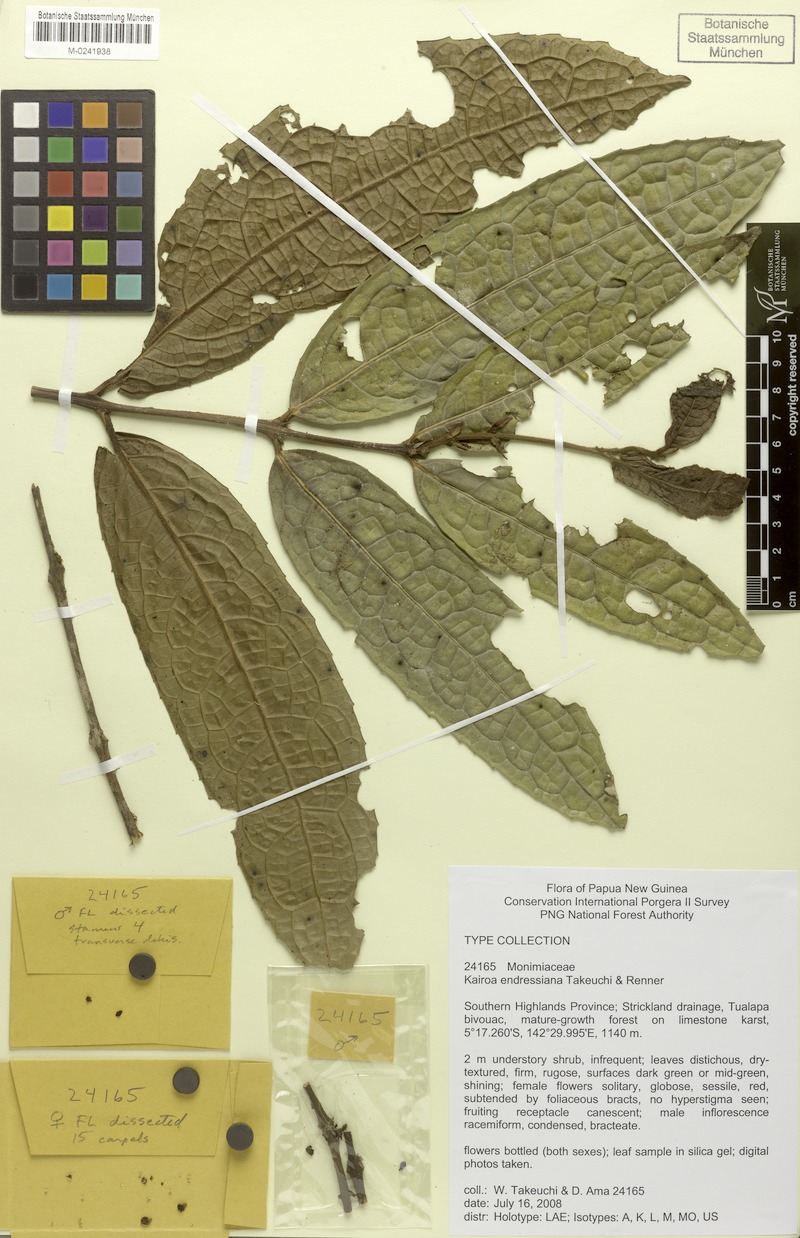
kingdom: Plantae
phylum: Tracheophyta
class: Magnoliopsida
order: Laurales
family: Monimiaceae
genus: Kairoa
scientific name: Kairoa endressiana
